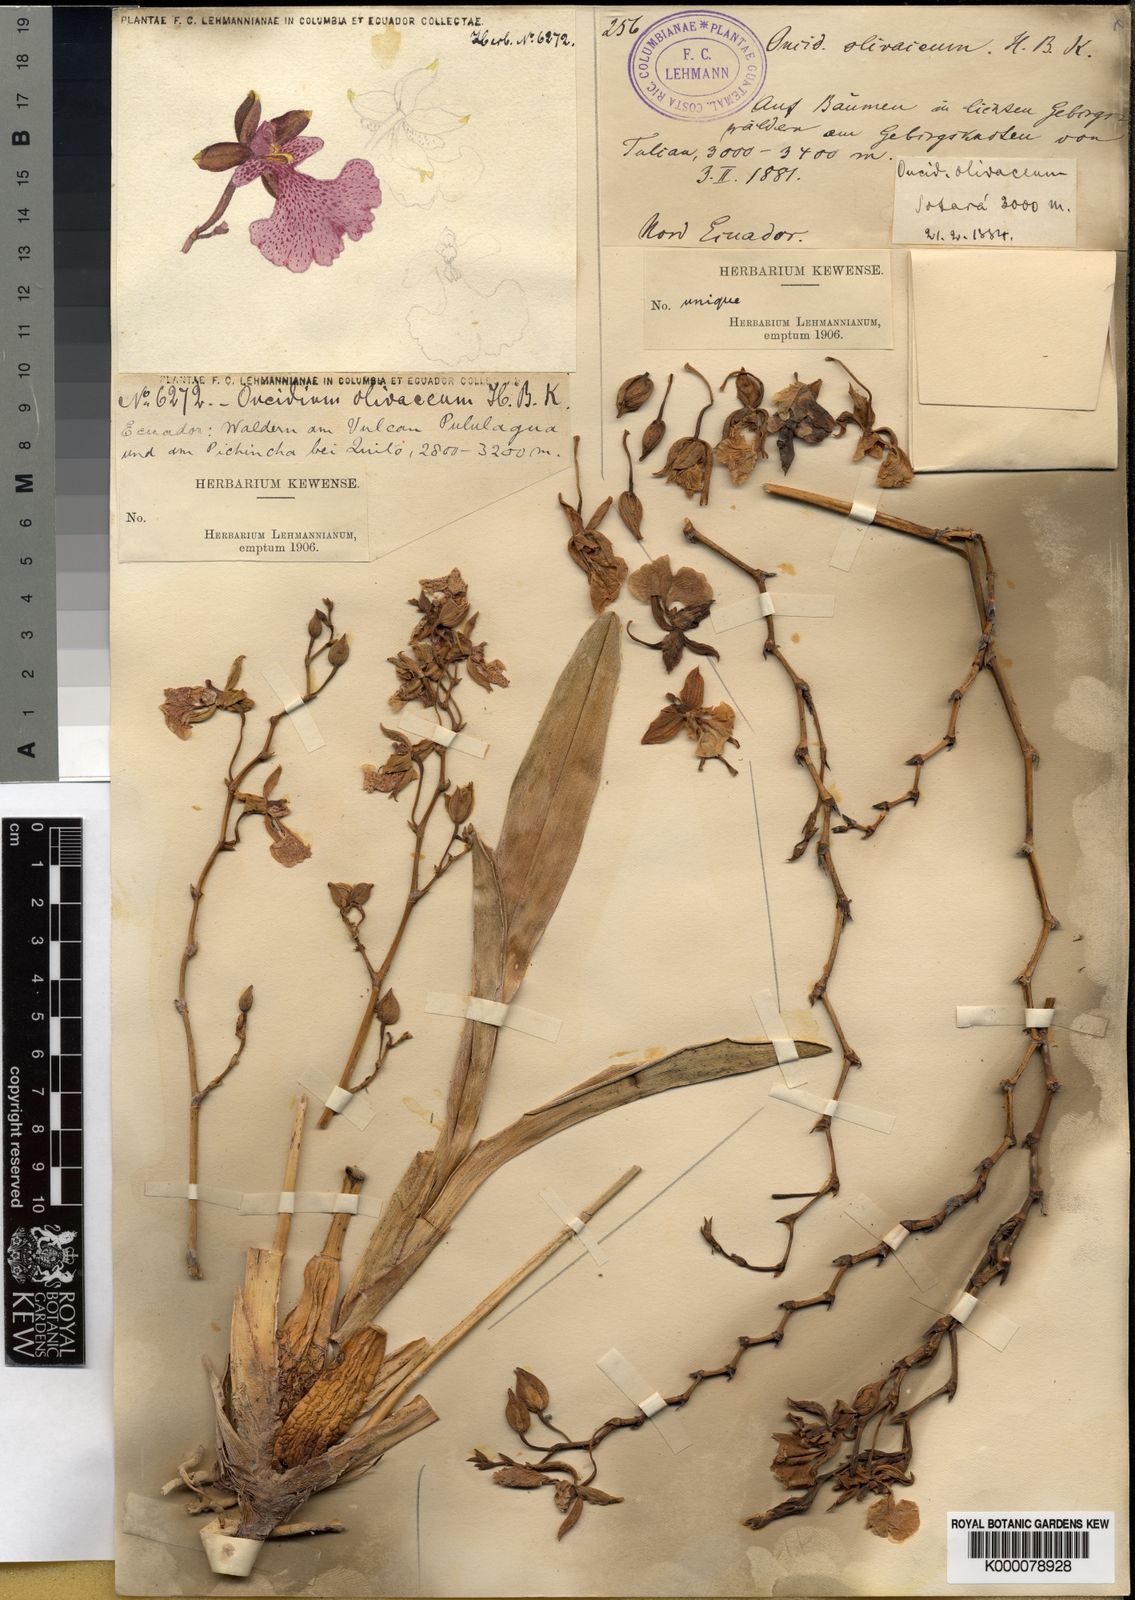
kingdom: Plantae
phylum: Tracheophyta
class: Liliopsida
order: Asparagales
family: Orchidaceae
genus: Caucaea
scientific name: Caucaea olivacea
